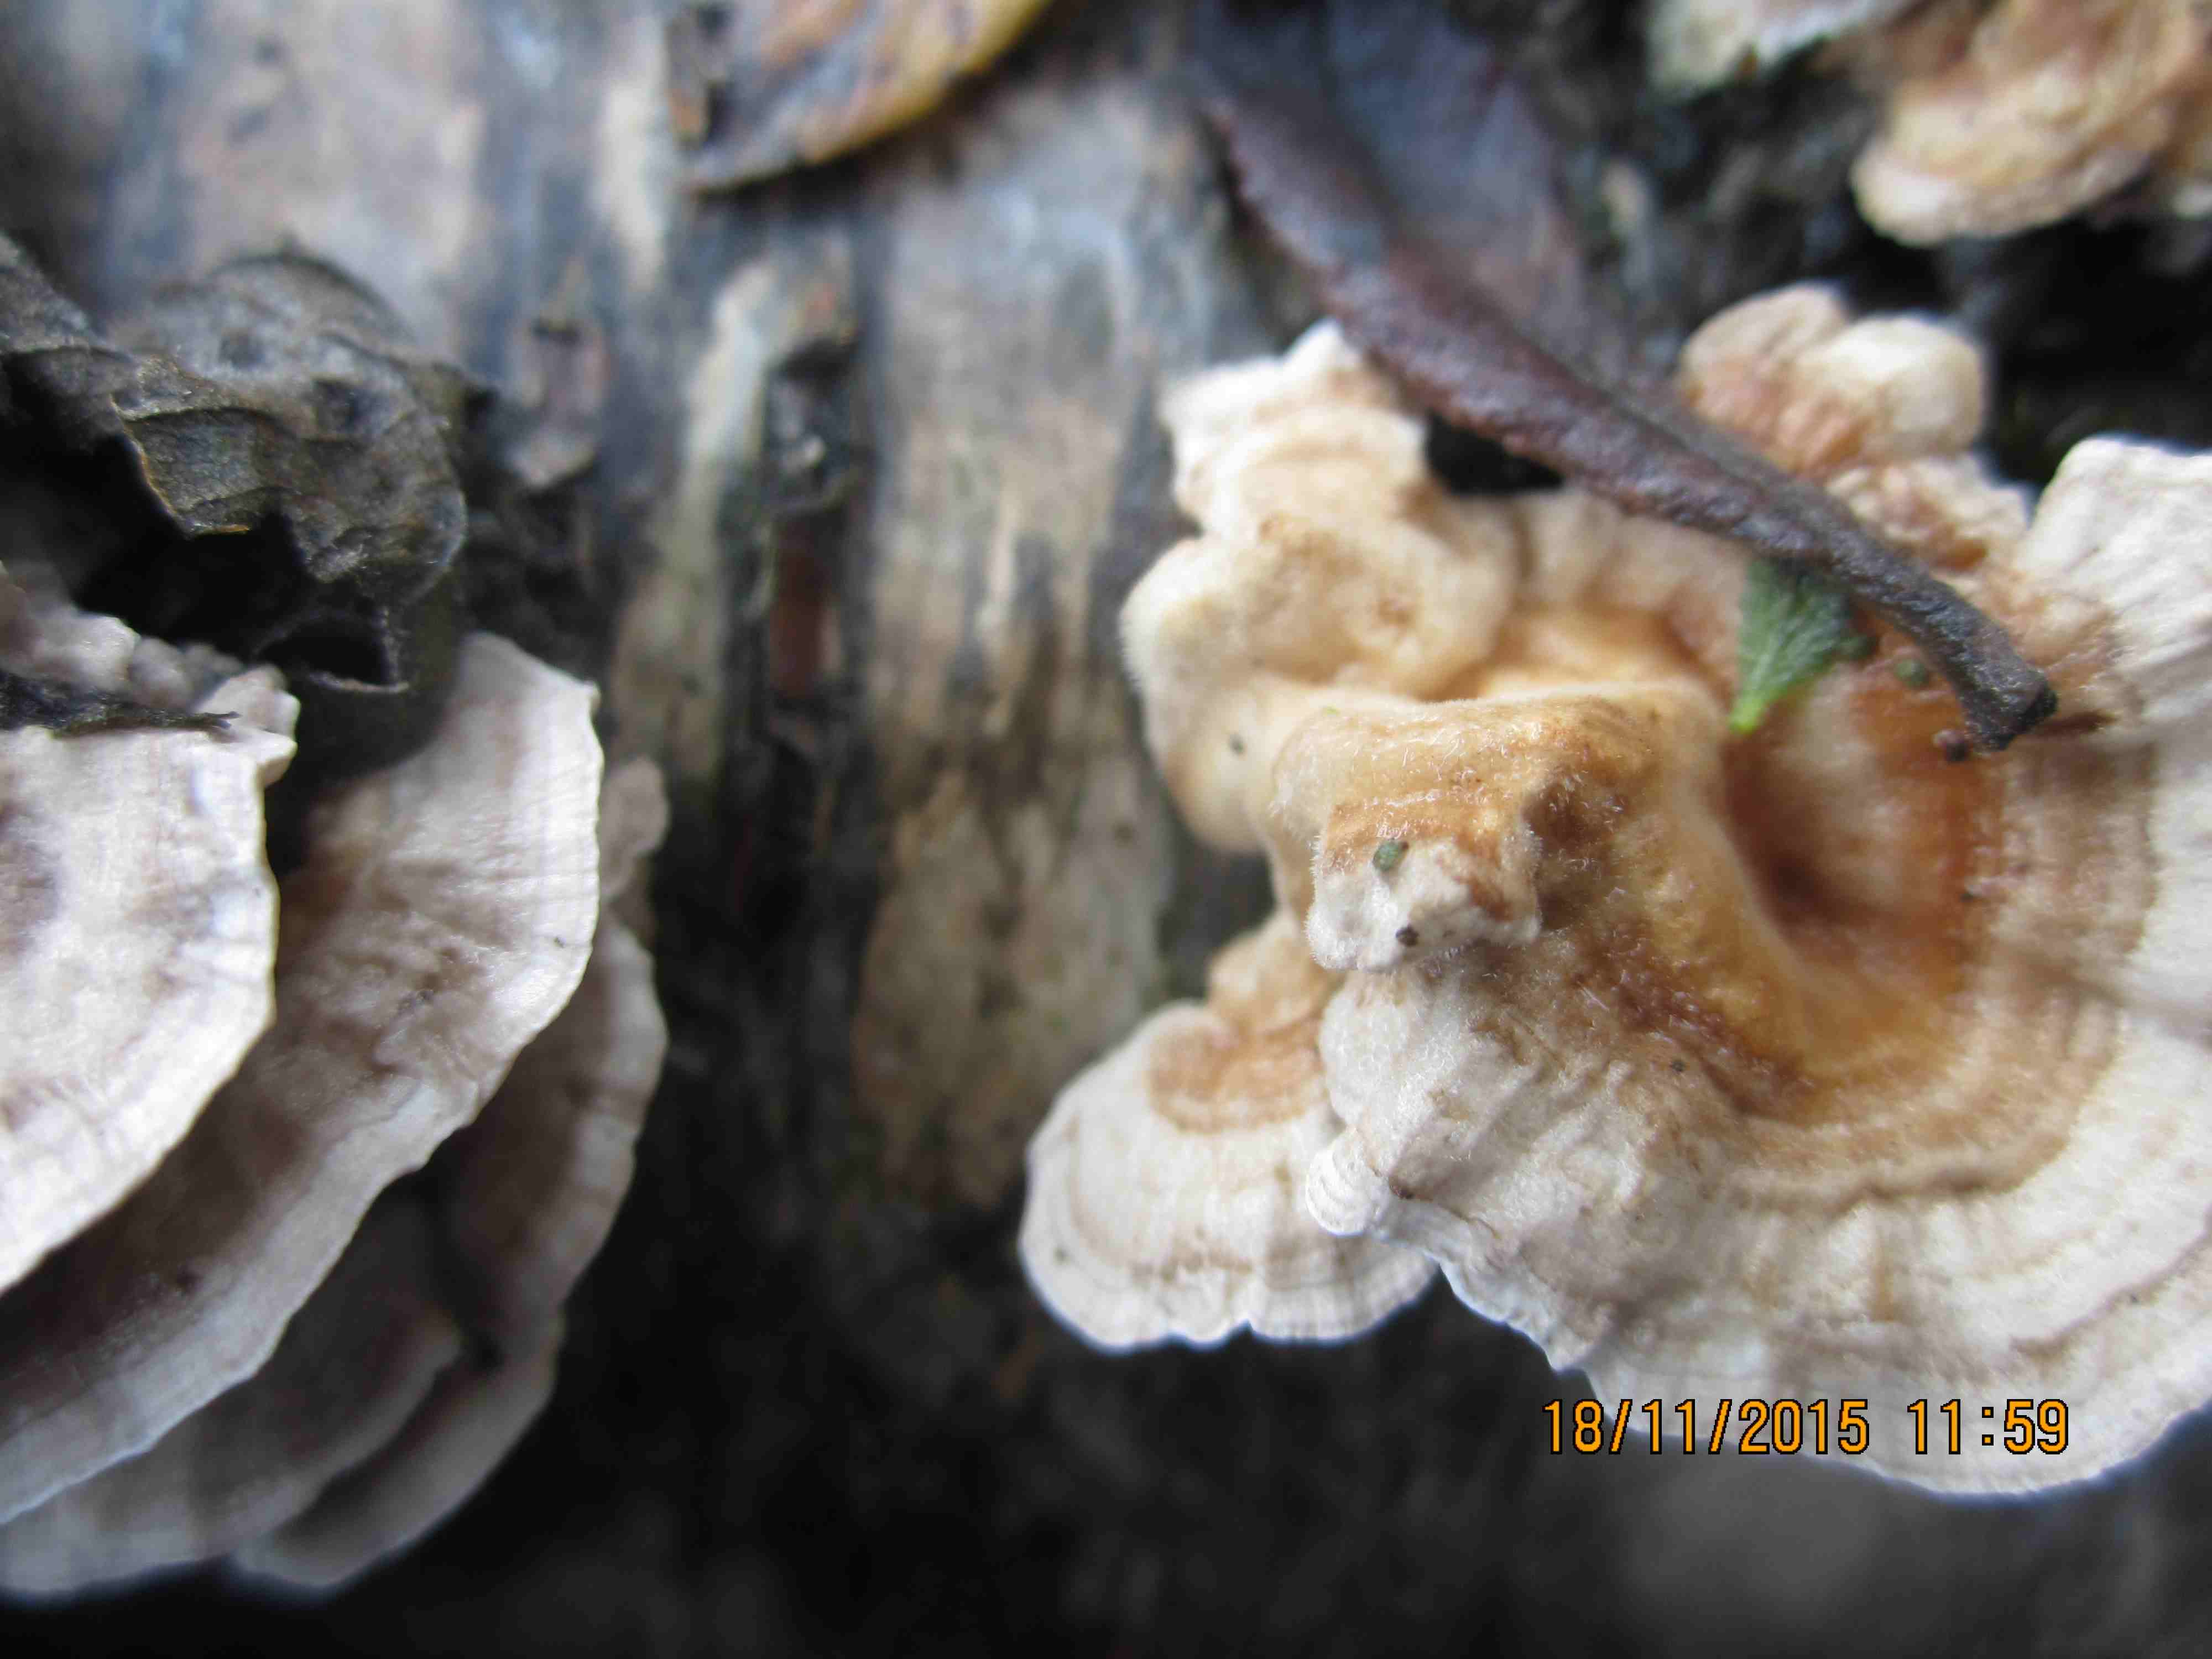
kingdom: Fungi
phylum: Basidiomycota
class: Agaricomycetes
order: Polyporales
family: Polyporaceae
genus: Trametes
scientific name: Trametes ochracea
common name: bæltet læderporesvamp
